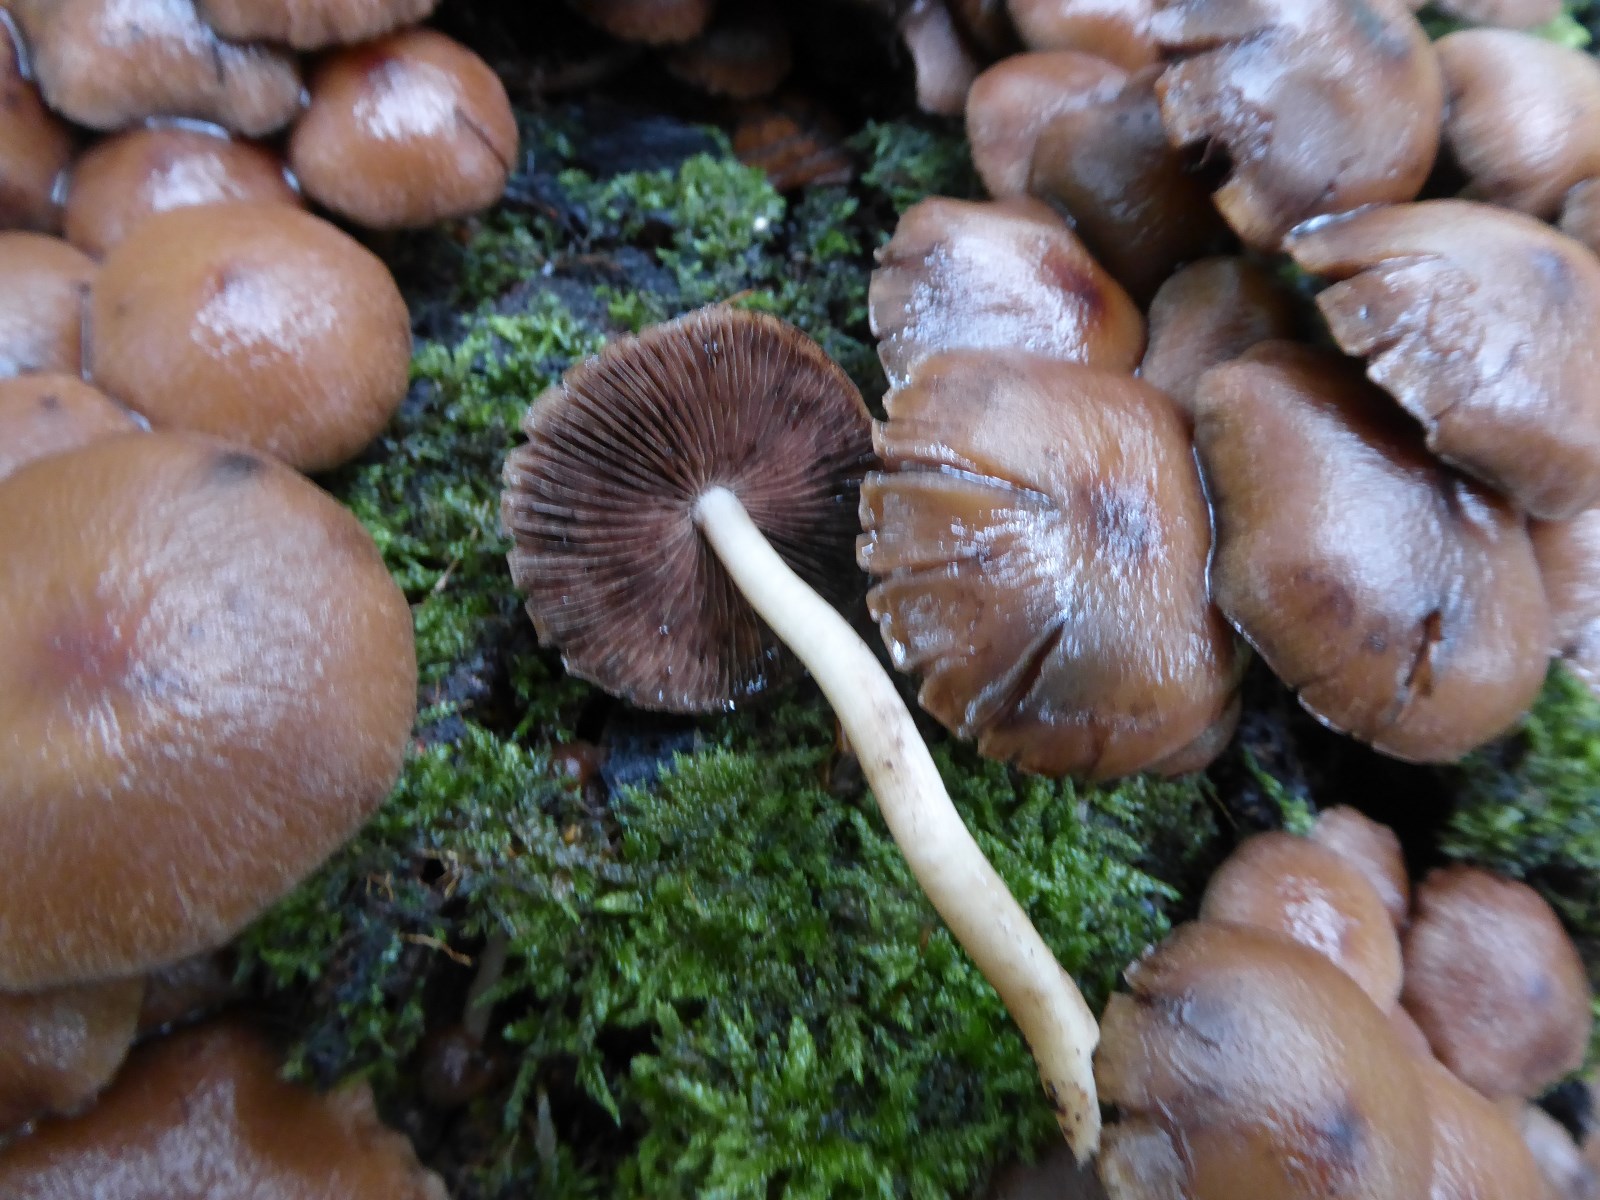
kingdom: Fungi
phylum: Basidiomycota
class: Agaricomycetes
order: Agaricales
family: Psathyrellaceae
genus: Psathyrella
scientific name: Psathyrella piluliformis
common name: lysstokket mørkhat
